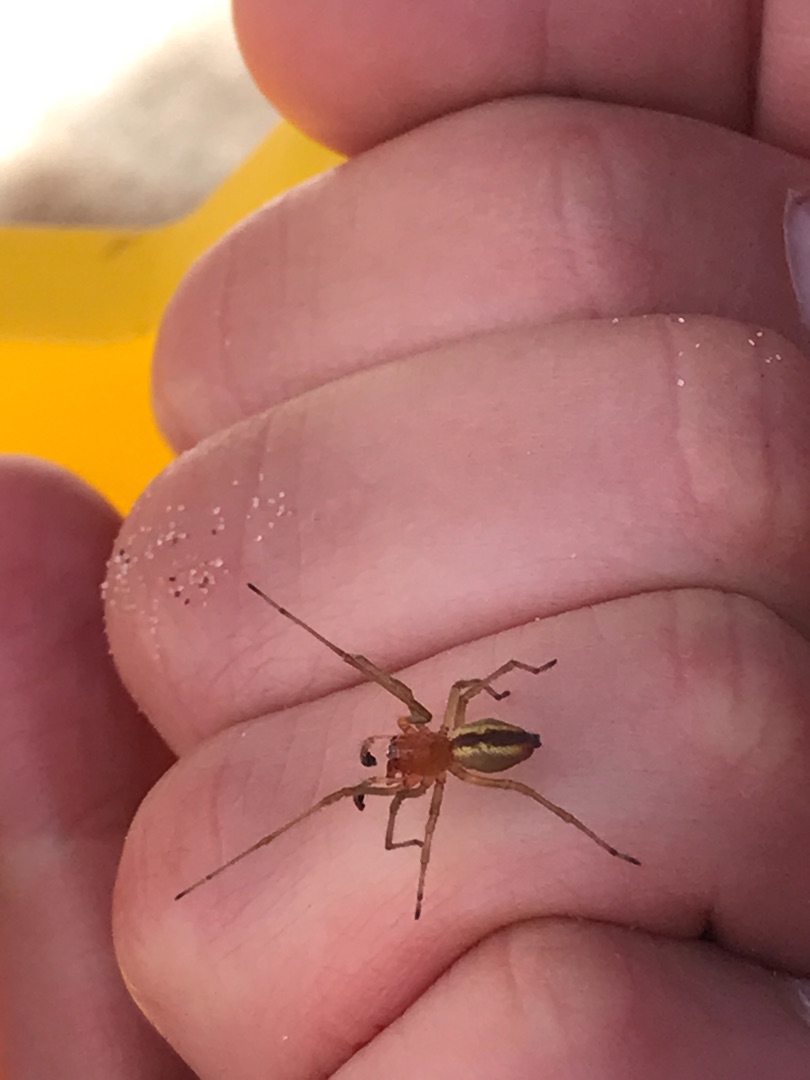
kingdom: Animalia
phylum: Arthropoda
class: Arachnida
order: Araneae
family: Cheiracanthiidae
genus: Cheiracanthium
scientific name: Cheiracanthium
